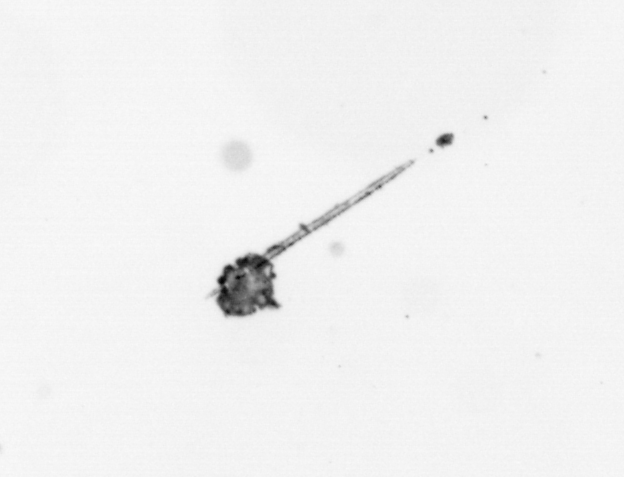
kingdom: Animalia
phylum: Arthropoda
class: Copepoda
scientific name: Copepoda
